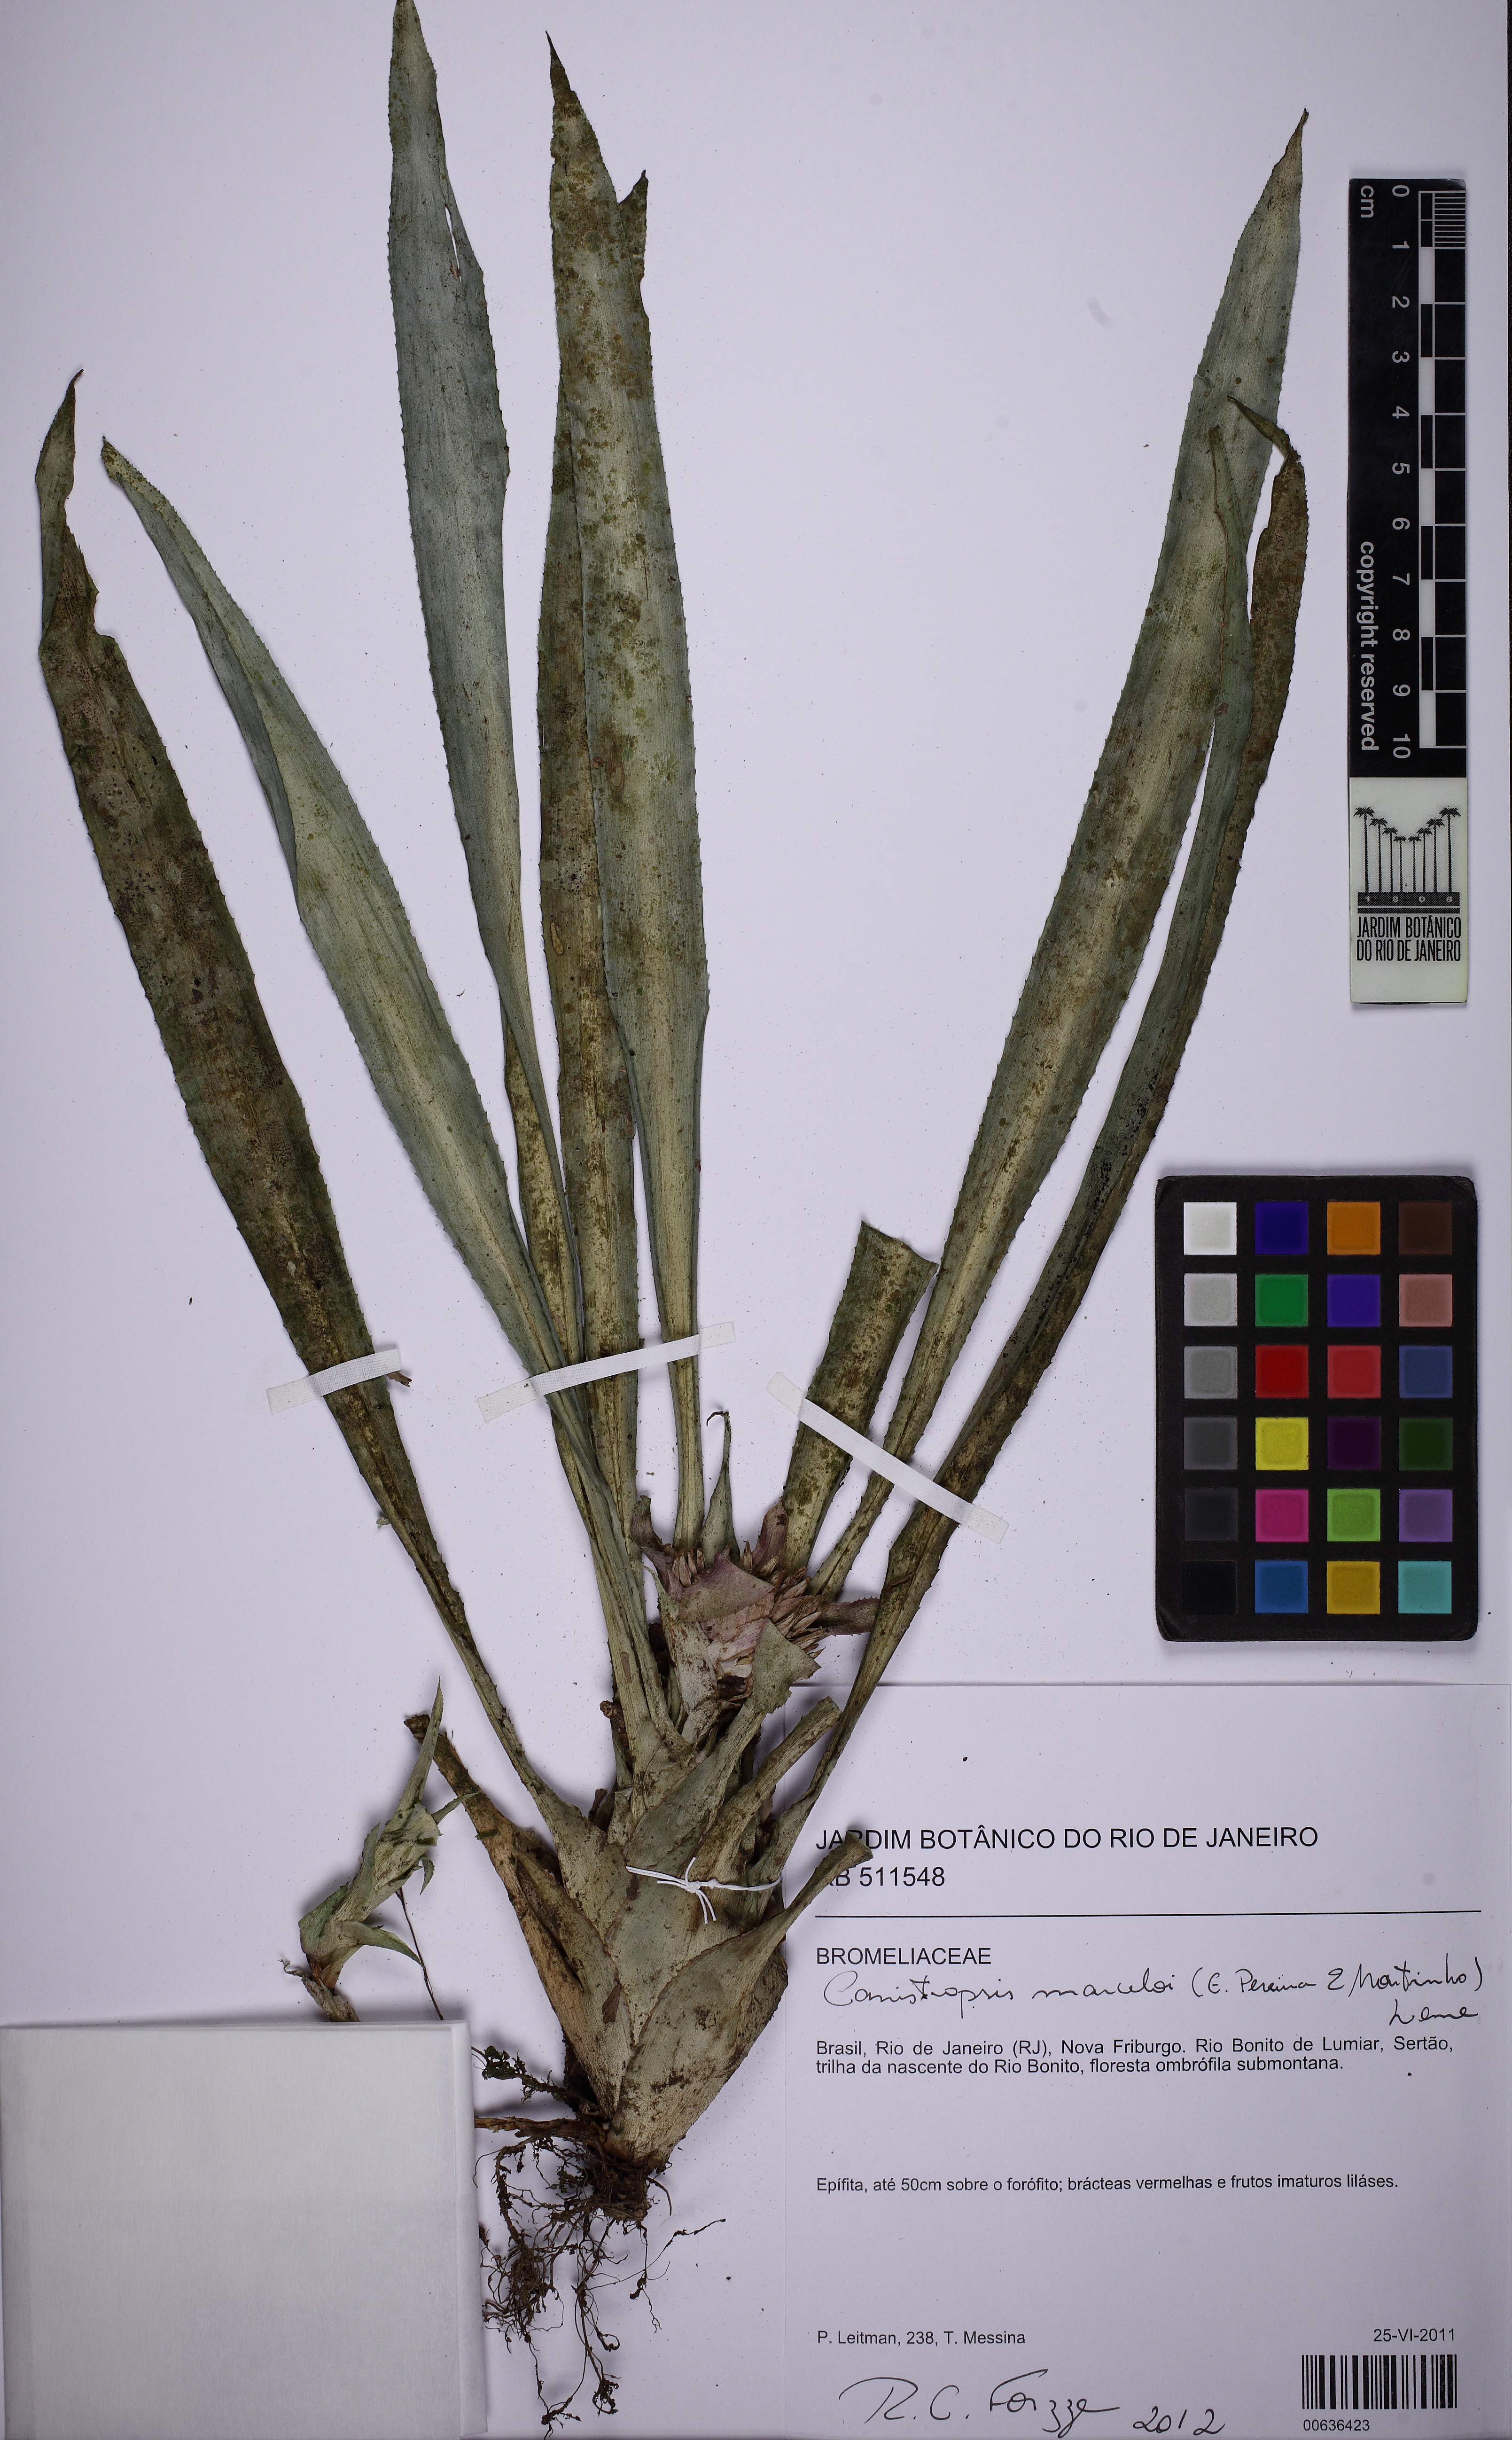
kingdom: Plantae
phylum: Tracheophyta
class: Liliopsida
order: Poales
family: Bromeliaceae
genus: Canistropsis
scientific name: Canistropsis marceloi
